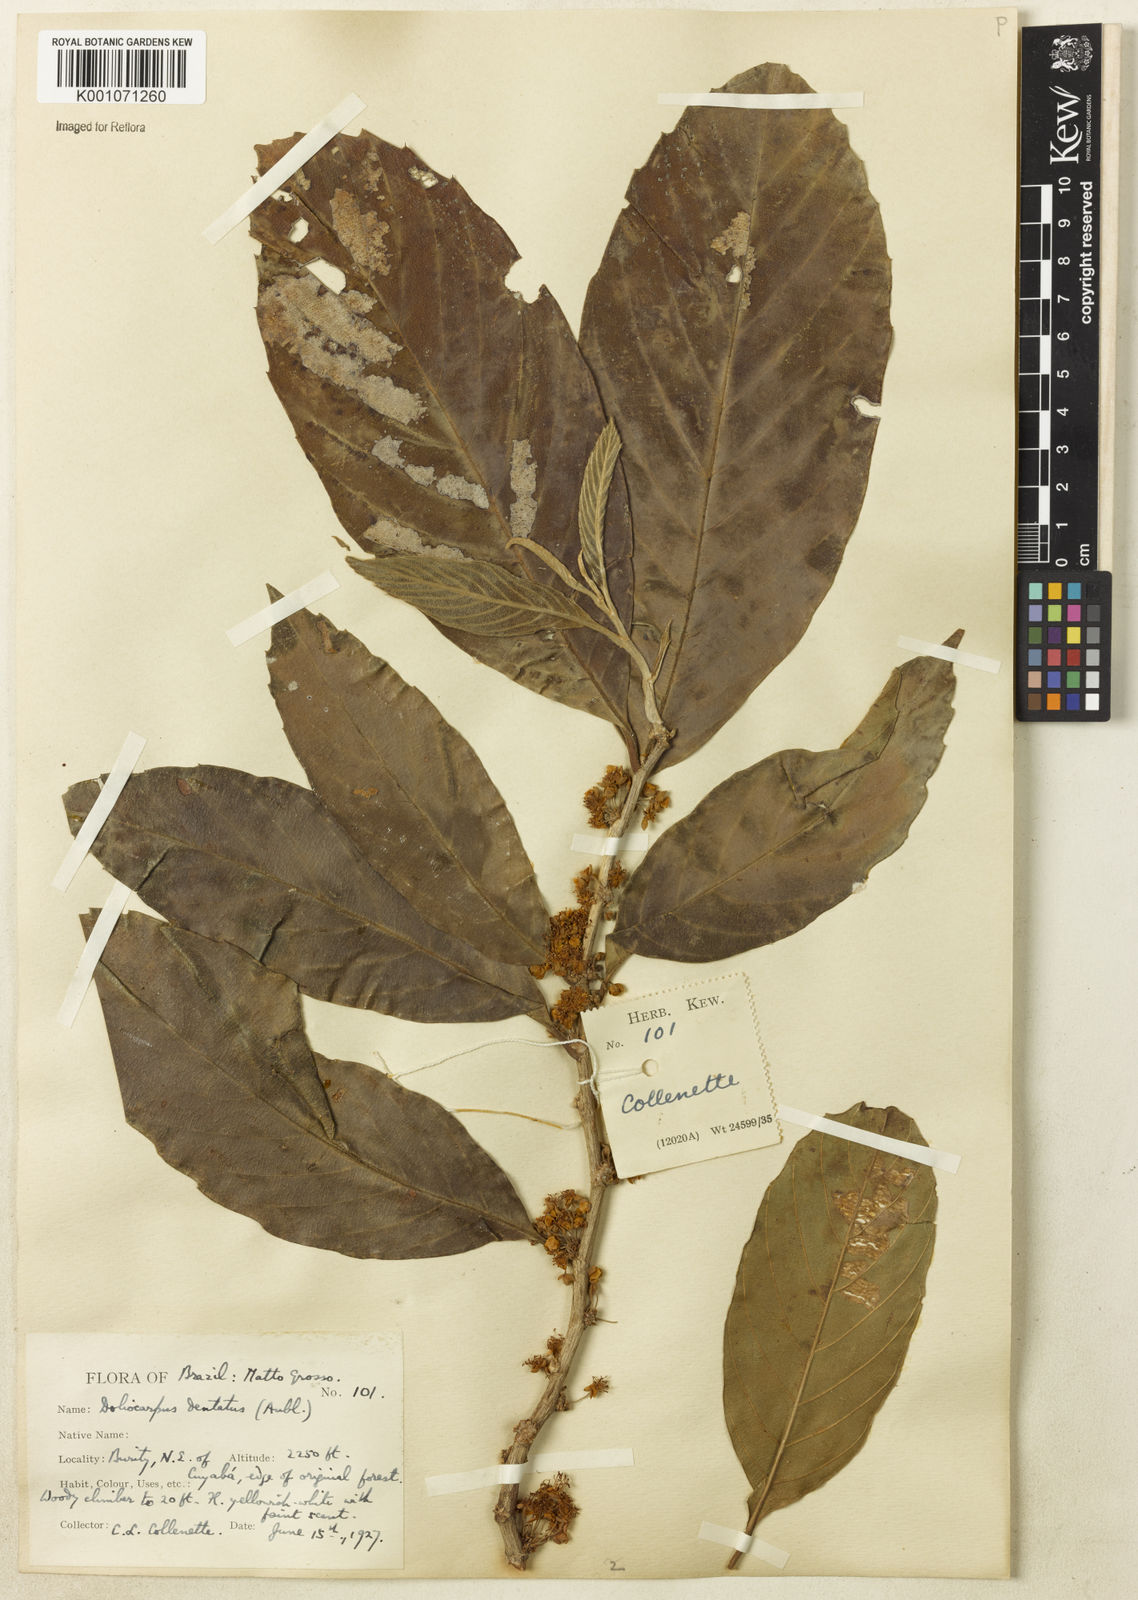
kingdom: Plantae
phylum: Tracheophyta
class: Magnoliopsida
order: Dilleniales
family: Dilleniaceae
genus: Doliocarpus
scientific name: Doliocarpus dentatus
